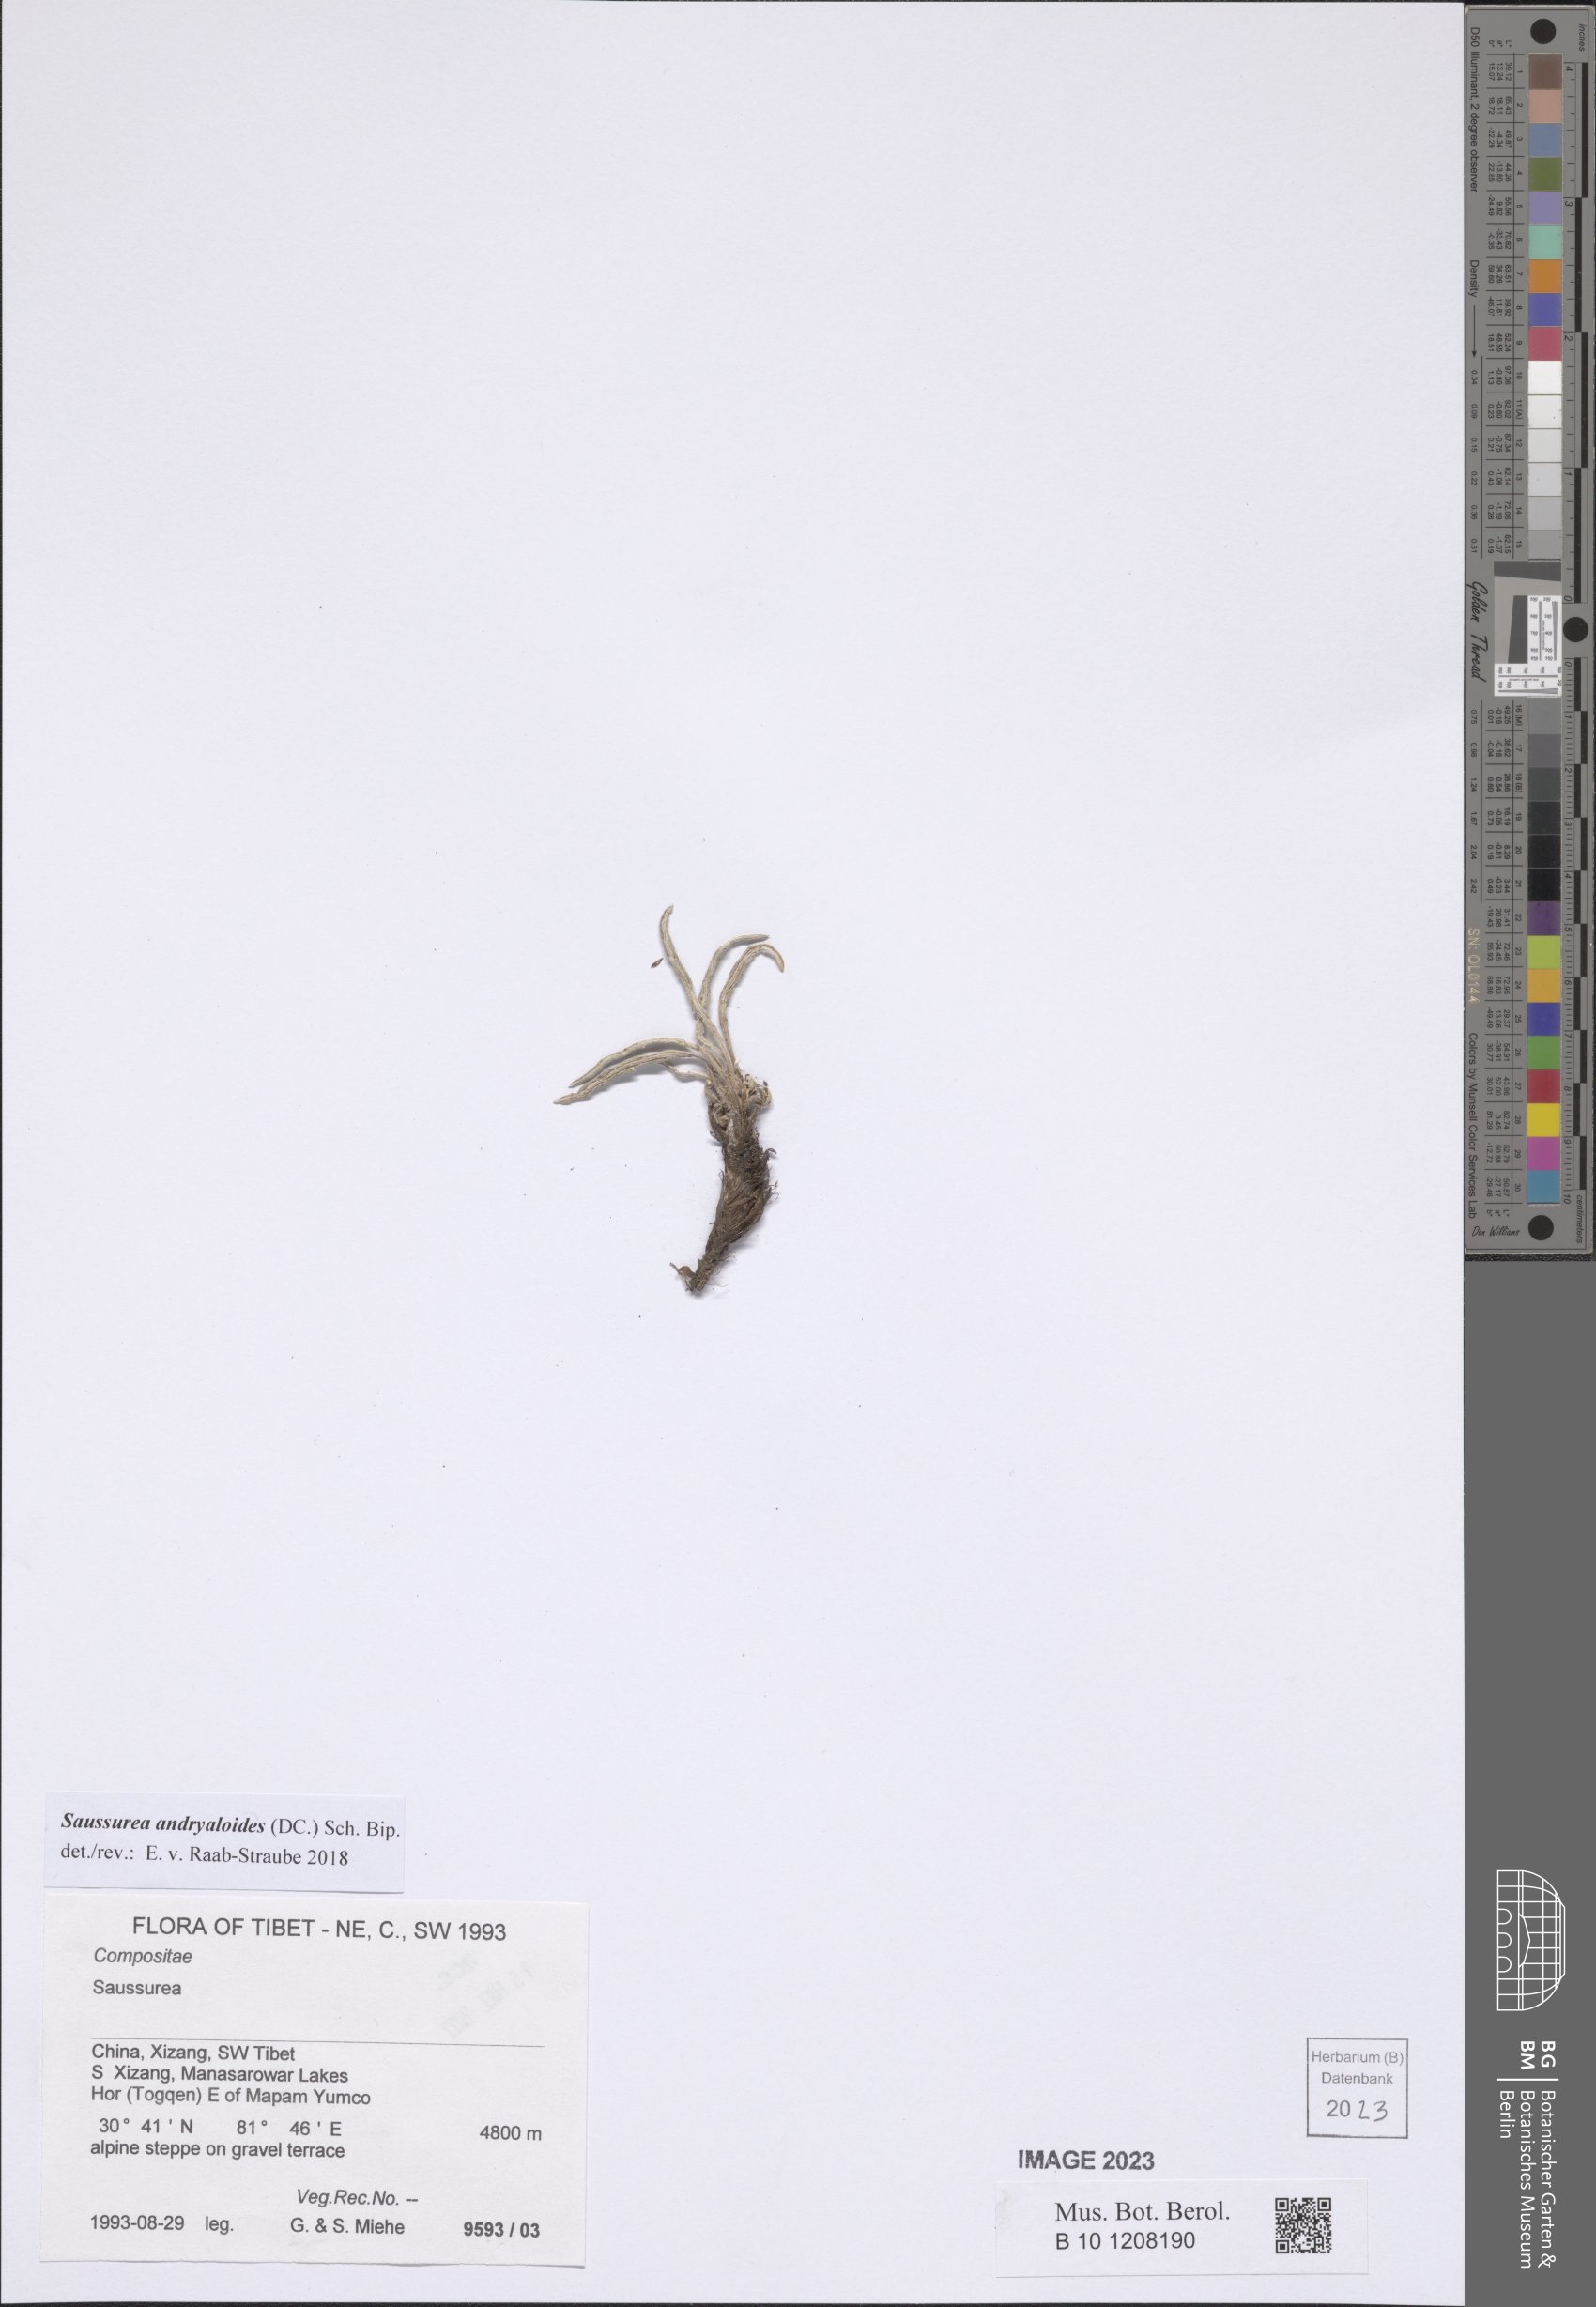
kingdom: Plantae
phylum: Tracheophyta
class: Magnoliopsida
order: Asterales
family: Asteraceae
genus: Saussurea
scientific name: Saussurea andryaloides
